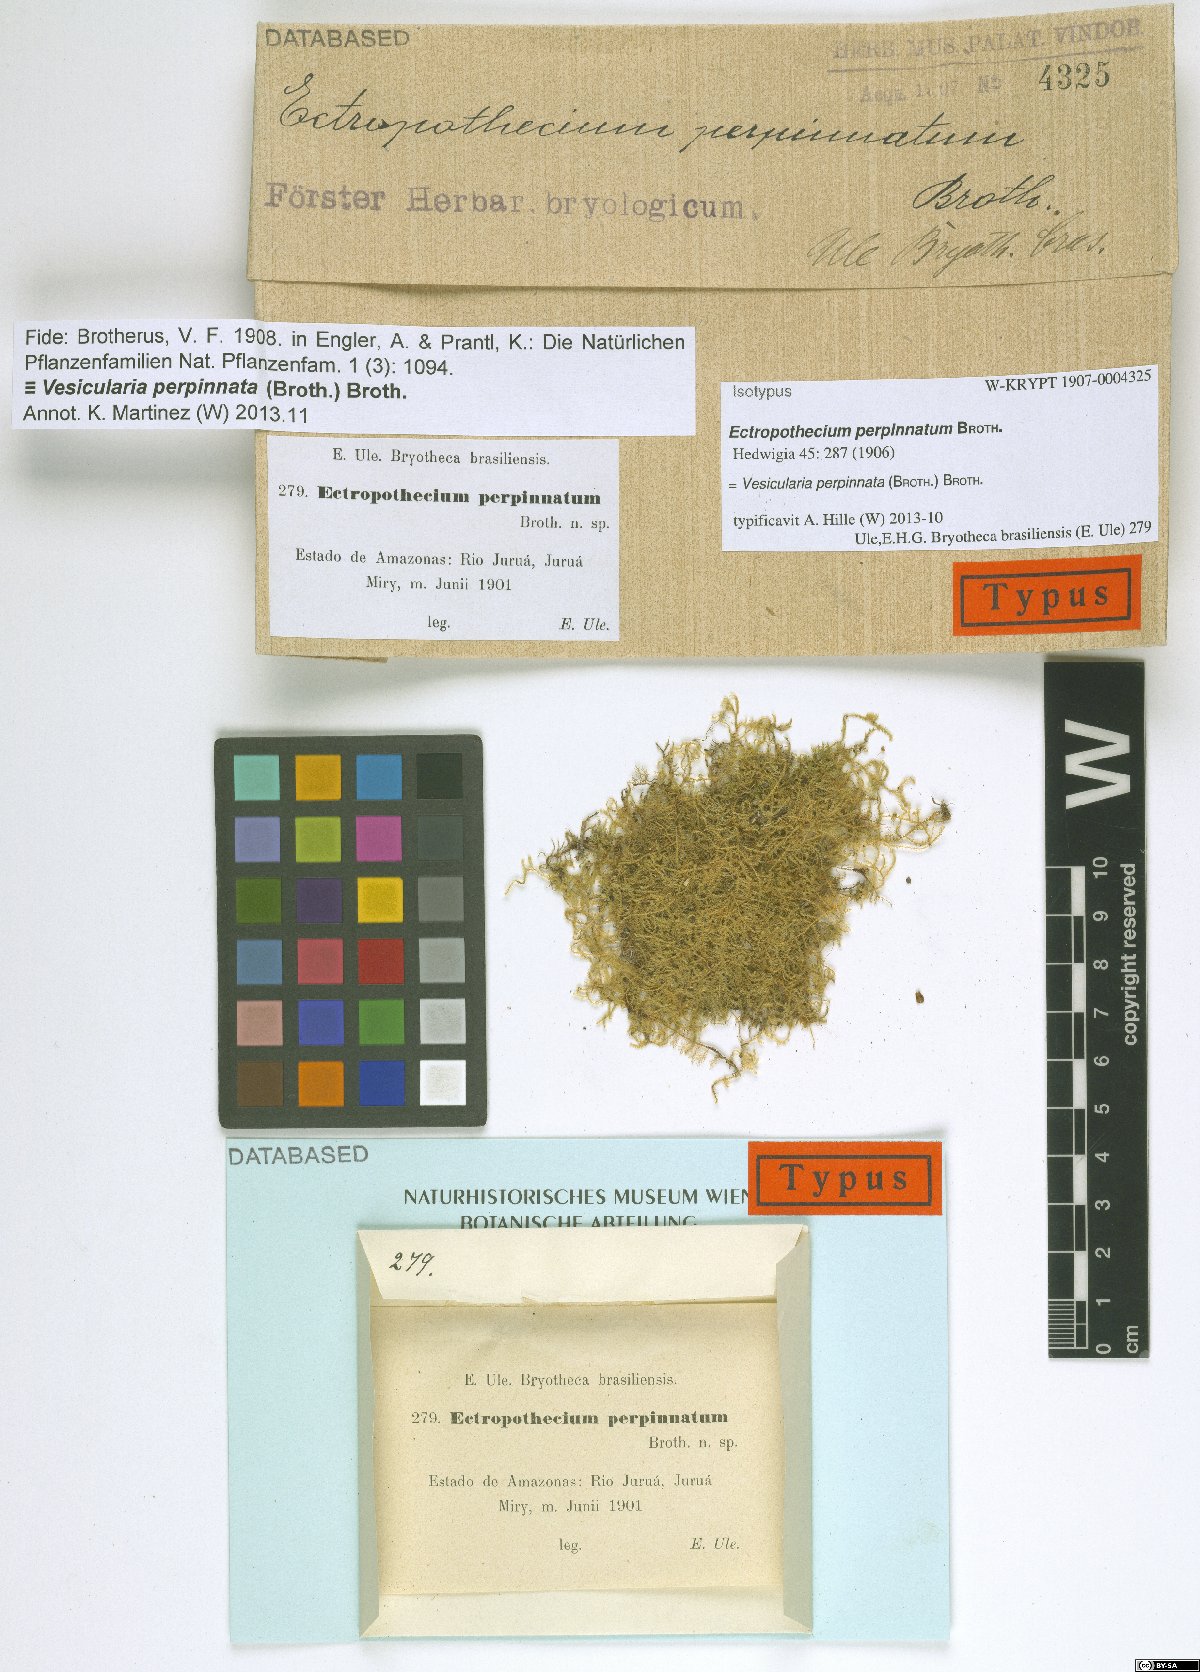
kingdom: Plantae
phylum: Bryophyta
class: Bryopsida
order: Hypnales
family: Hypnaceae
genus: Vesicularia
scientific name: Vesicularia perpinnata
